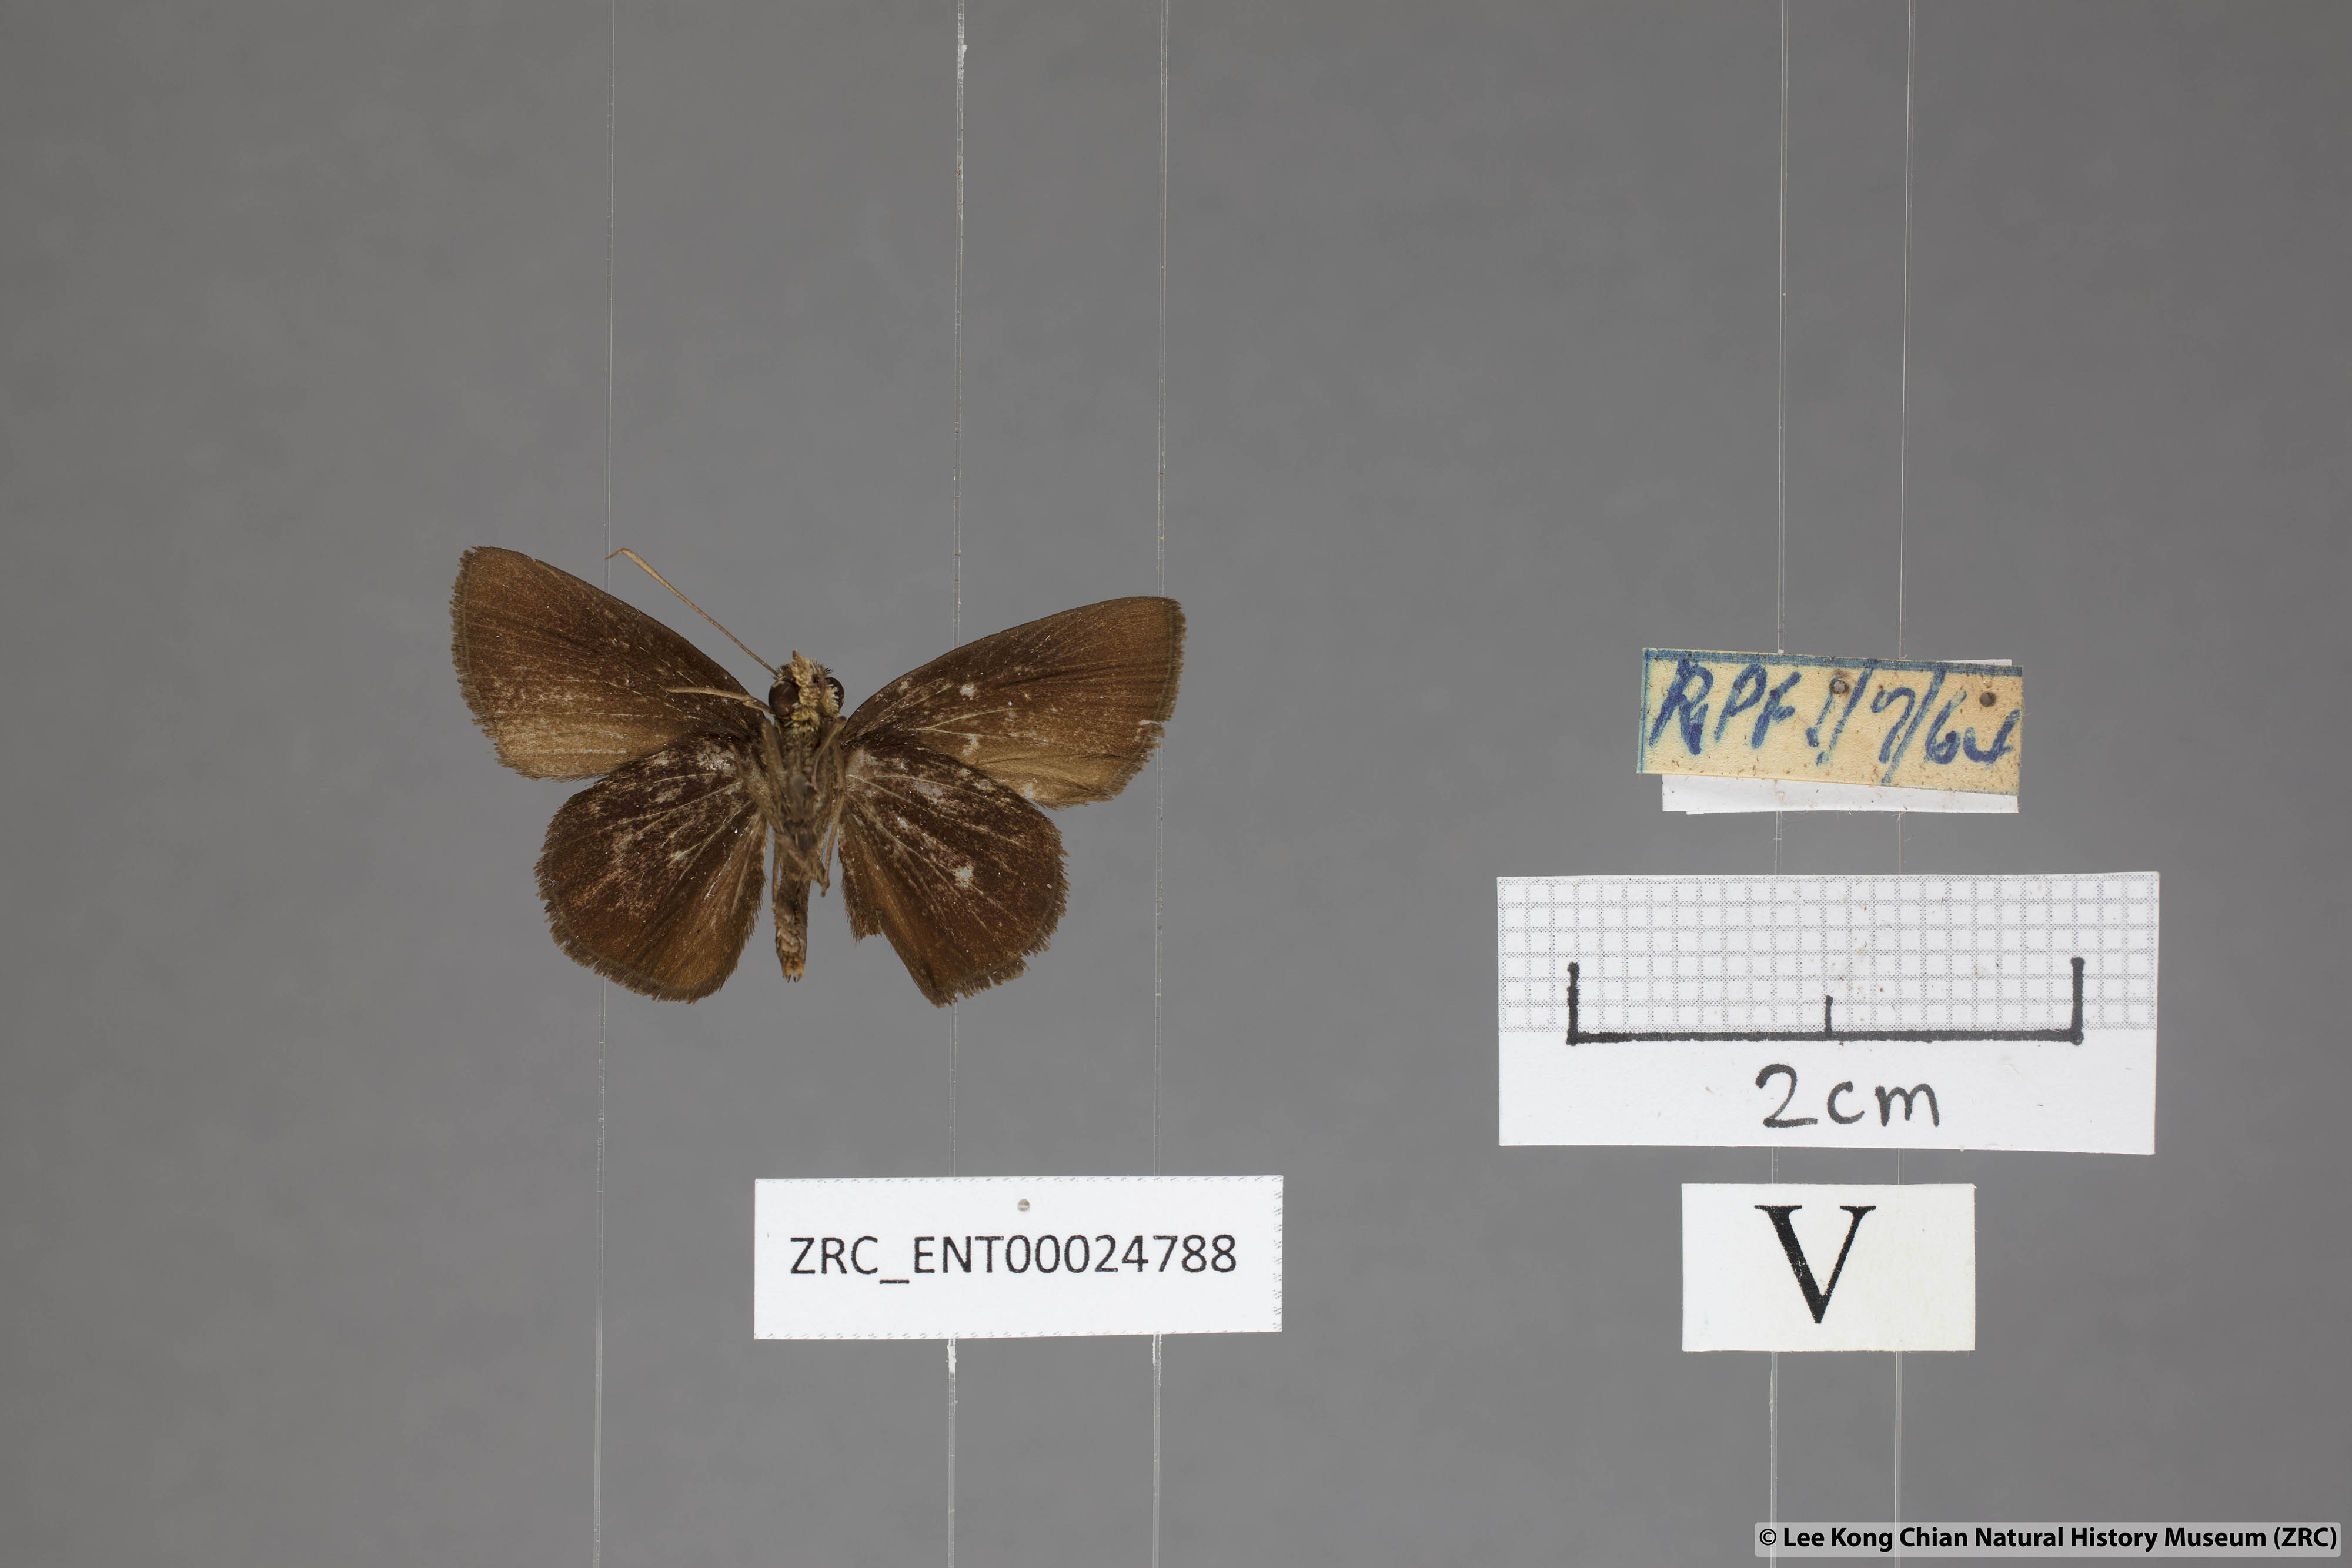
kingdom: Animalia
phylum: Arthropoda
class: Insecta
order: Lepidoptera
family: Hesperiidae
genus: Iambrix
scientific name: Iambrix
